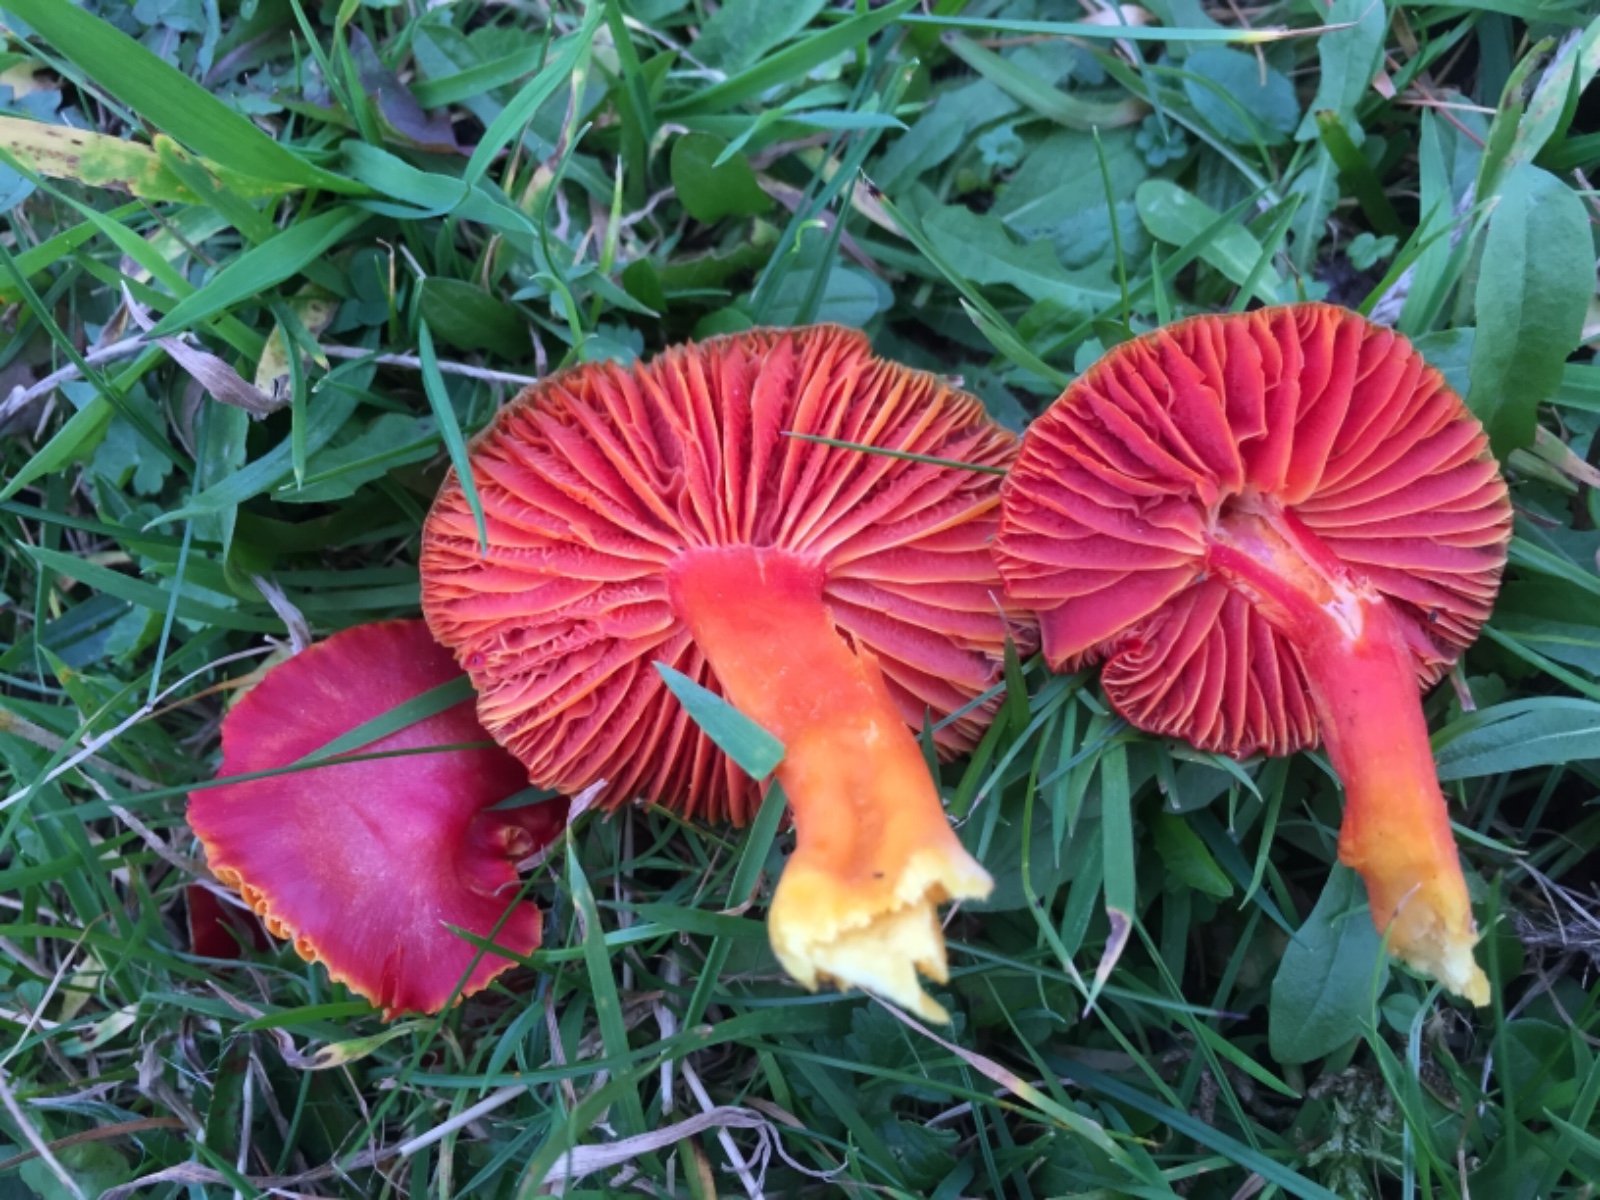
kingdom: Fungi
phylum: Basidiomycota
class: Agaricomycetes
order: Agaricales
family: Hygrophoraceae
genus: Hygrocybe
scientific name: Hygrocybe coccinea
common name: cinnober-vokshat
